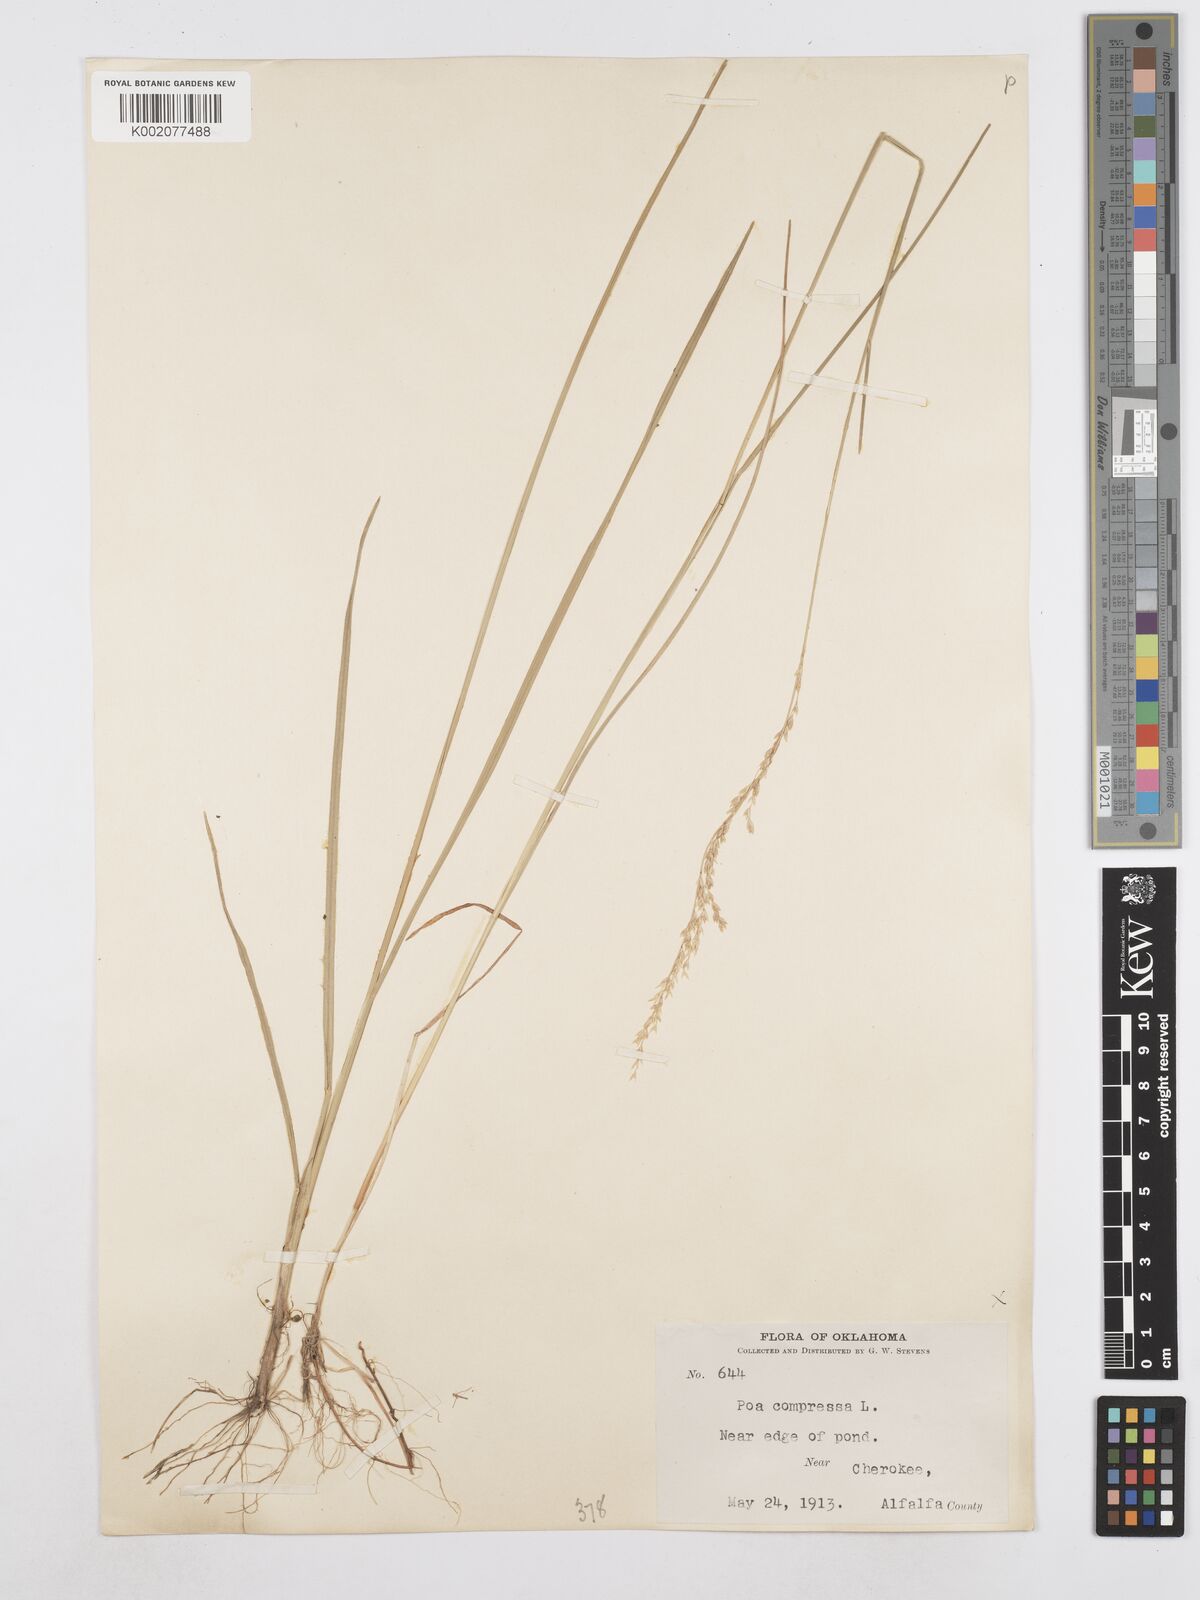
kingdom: Plantae
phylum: Tracheophyta
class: Liliopsida
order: Poales
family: Poaceae
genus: Poa
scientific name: Poa compressa
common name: Canada bluegrass
